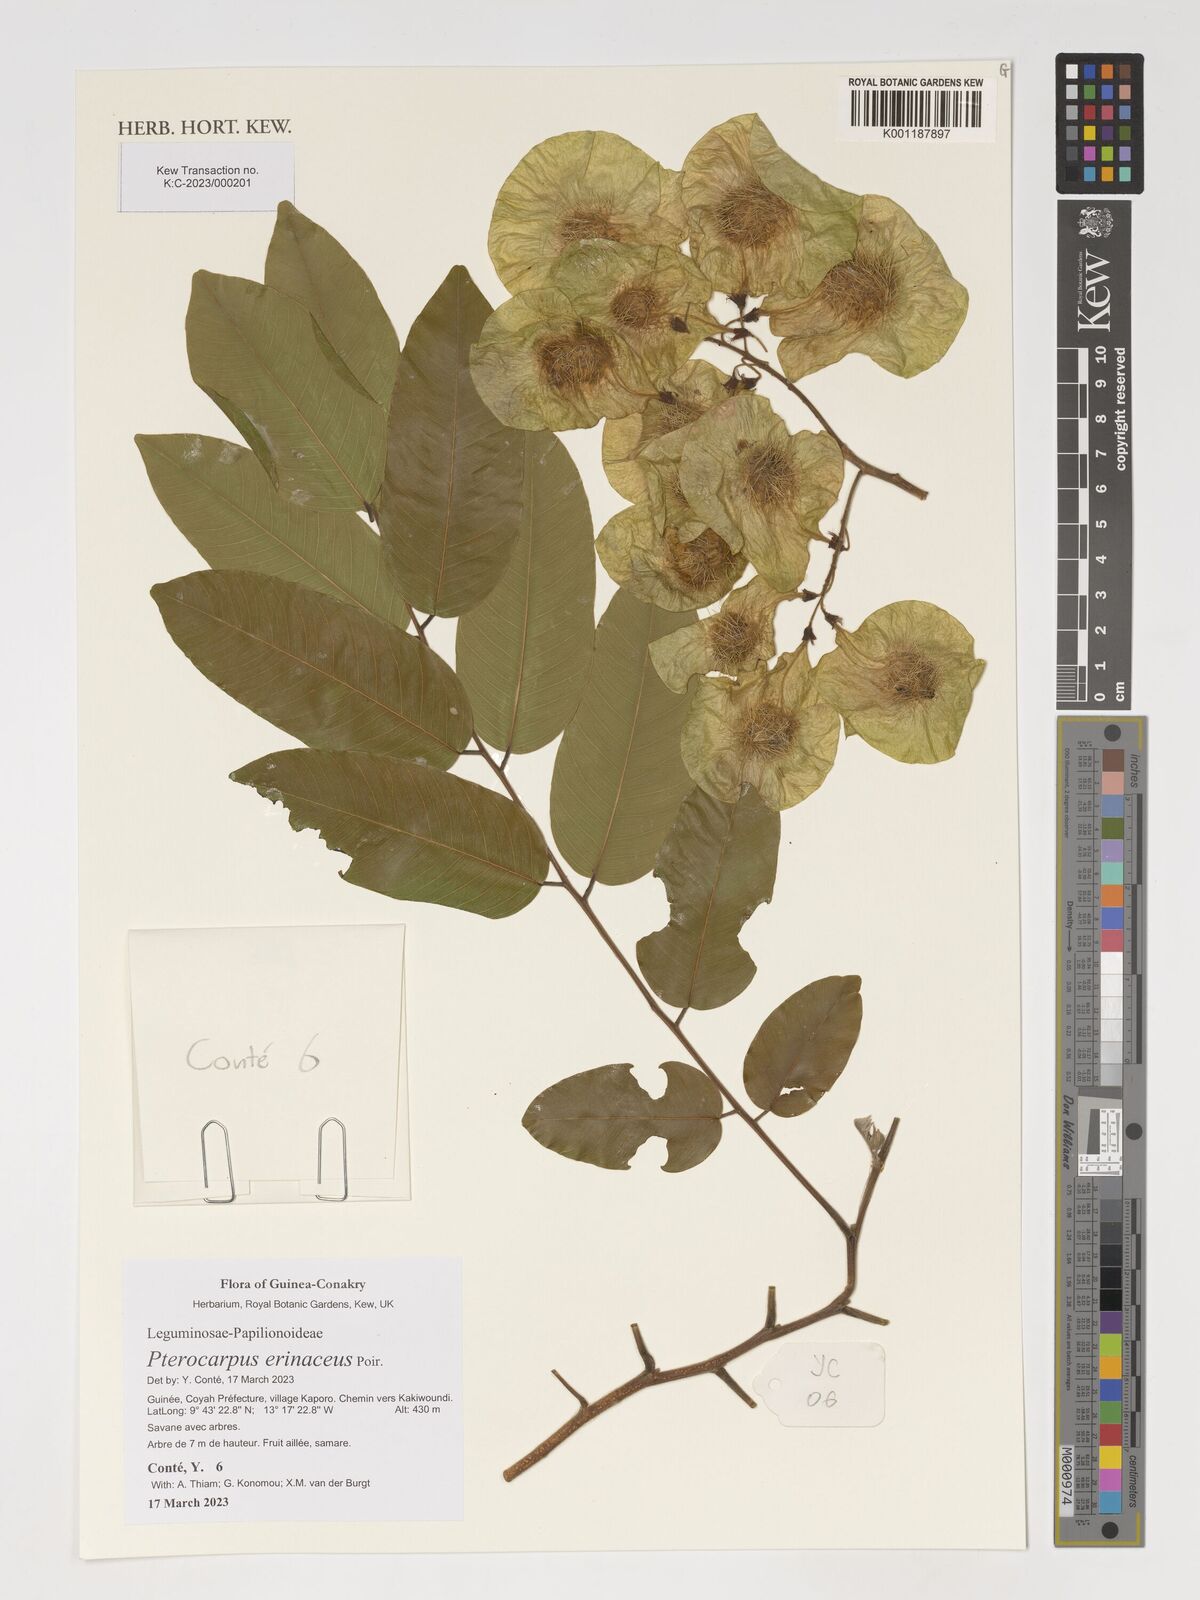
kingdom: Plantae
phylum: Tracheophyta
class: Magnoliopsida
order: Fabales
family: Fabaceae
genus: Pterocarpus
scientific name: Pterocarpus erinaceus
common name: African rosewood
